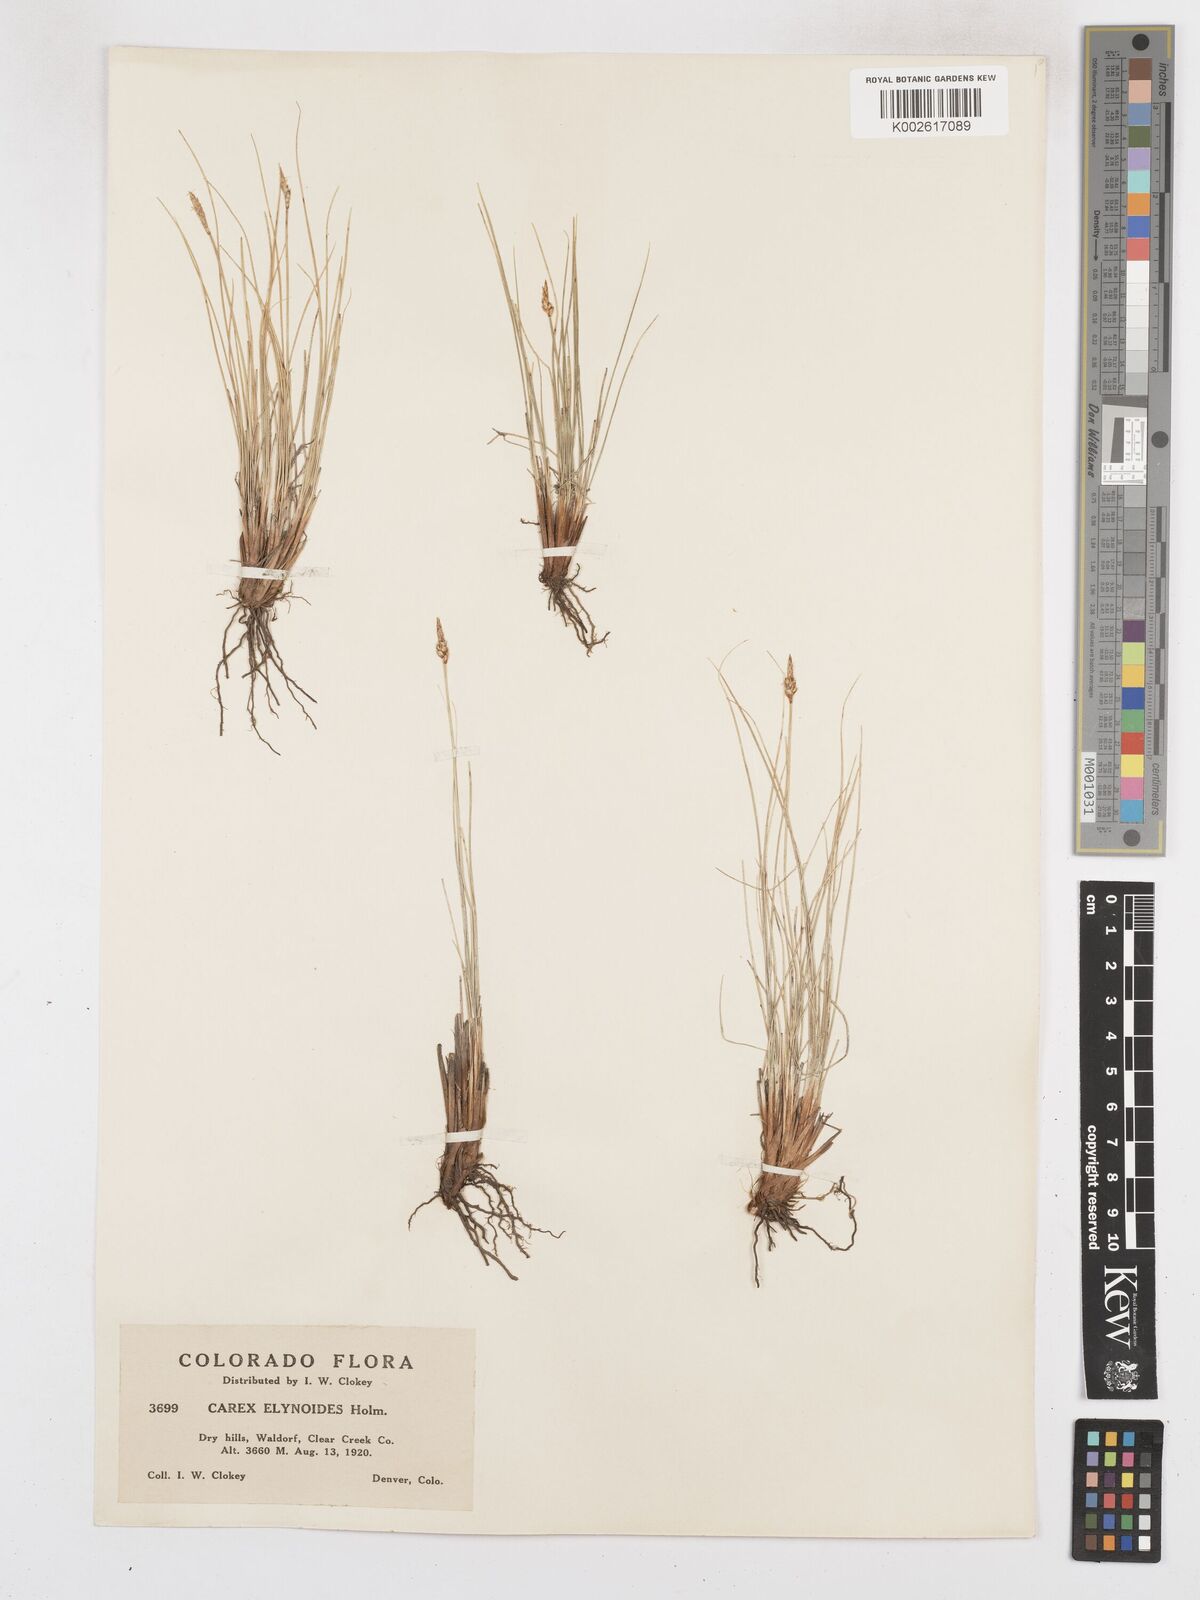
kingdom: Plantae
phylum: Tracheophyta
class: Liliopsida
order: Poales
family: Cyperaceae
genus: Carex
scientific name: Carex elynoides
